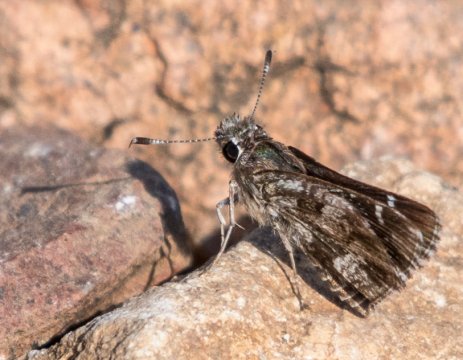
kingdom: Animalia
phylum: Arthropoda
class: Insecta
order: Lepidoptera
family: Hesperiidae
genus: Mastor
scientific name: Mastor nysa
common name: Nysa Roadside-Skipper
